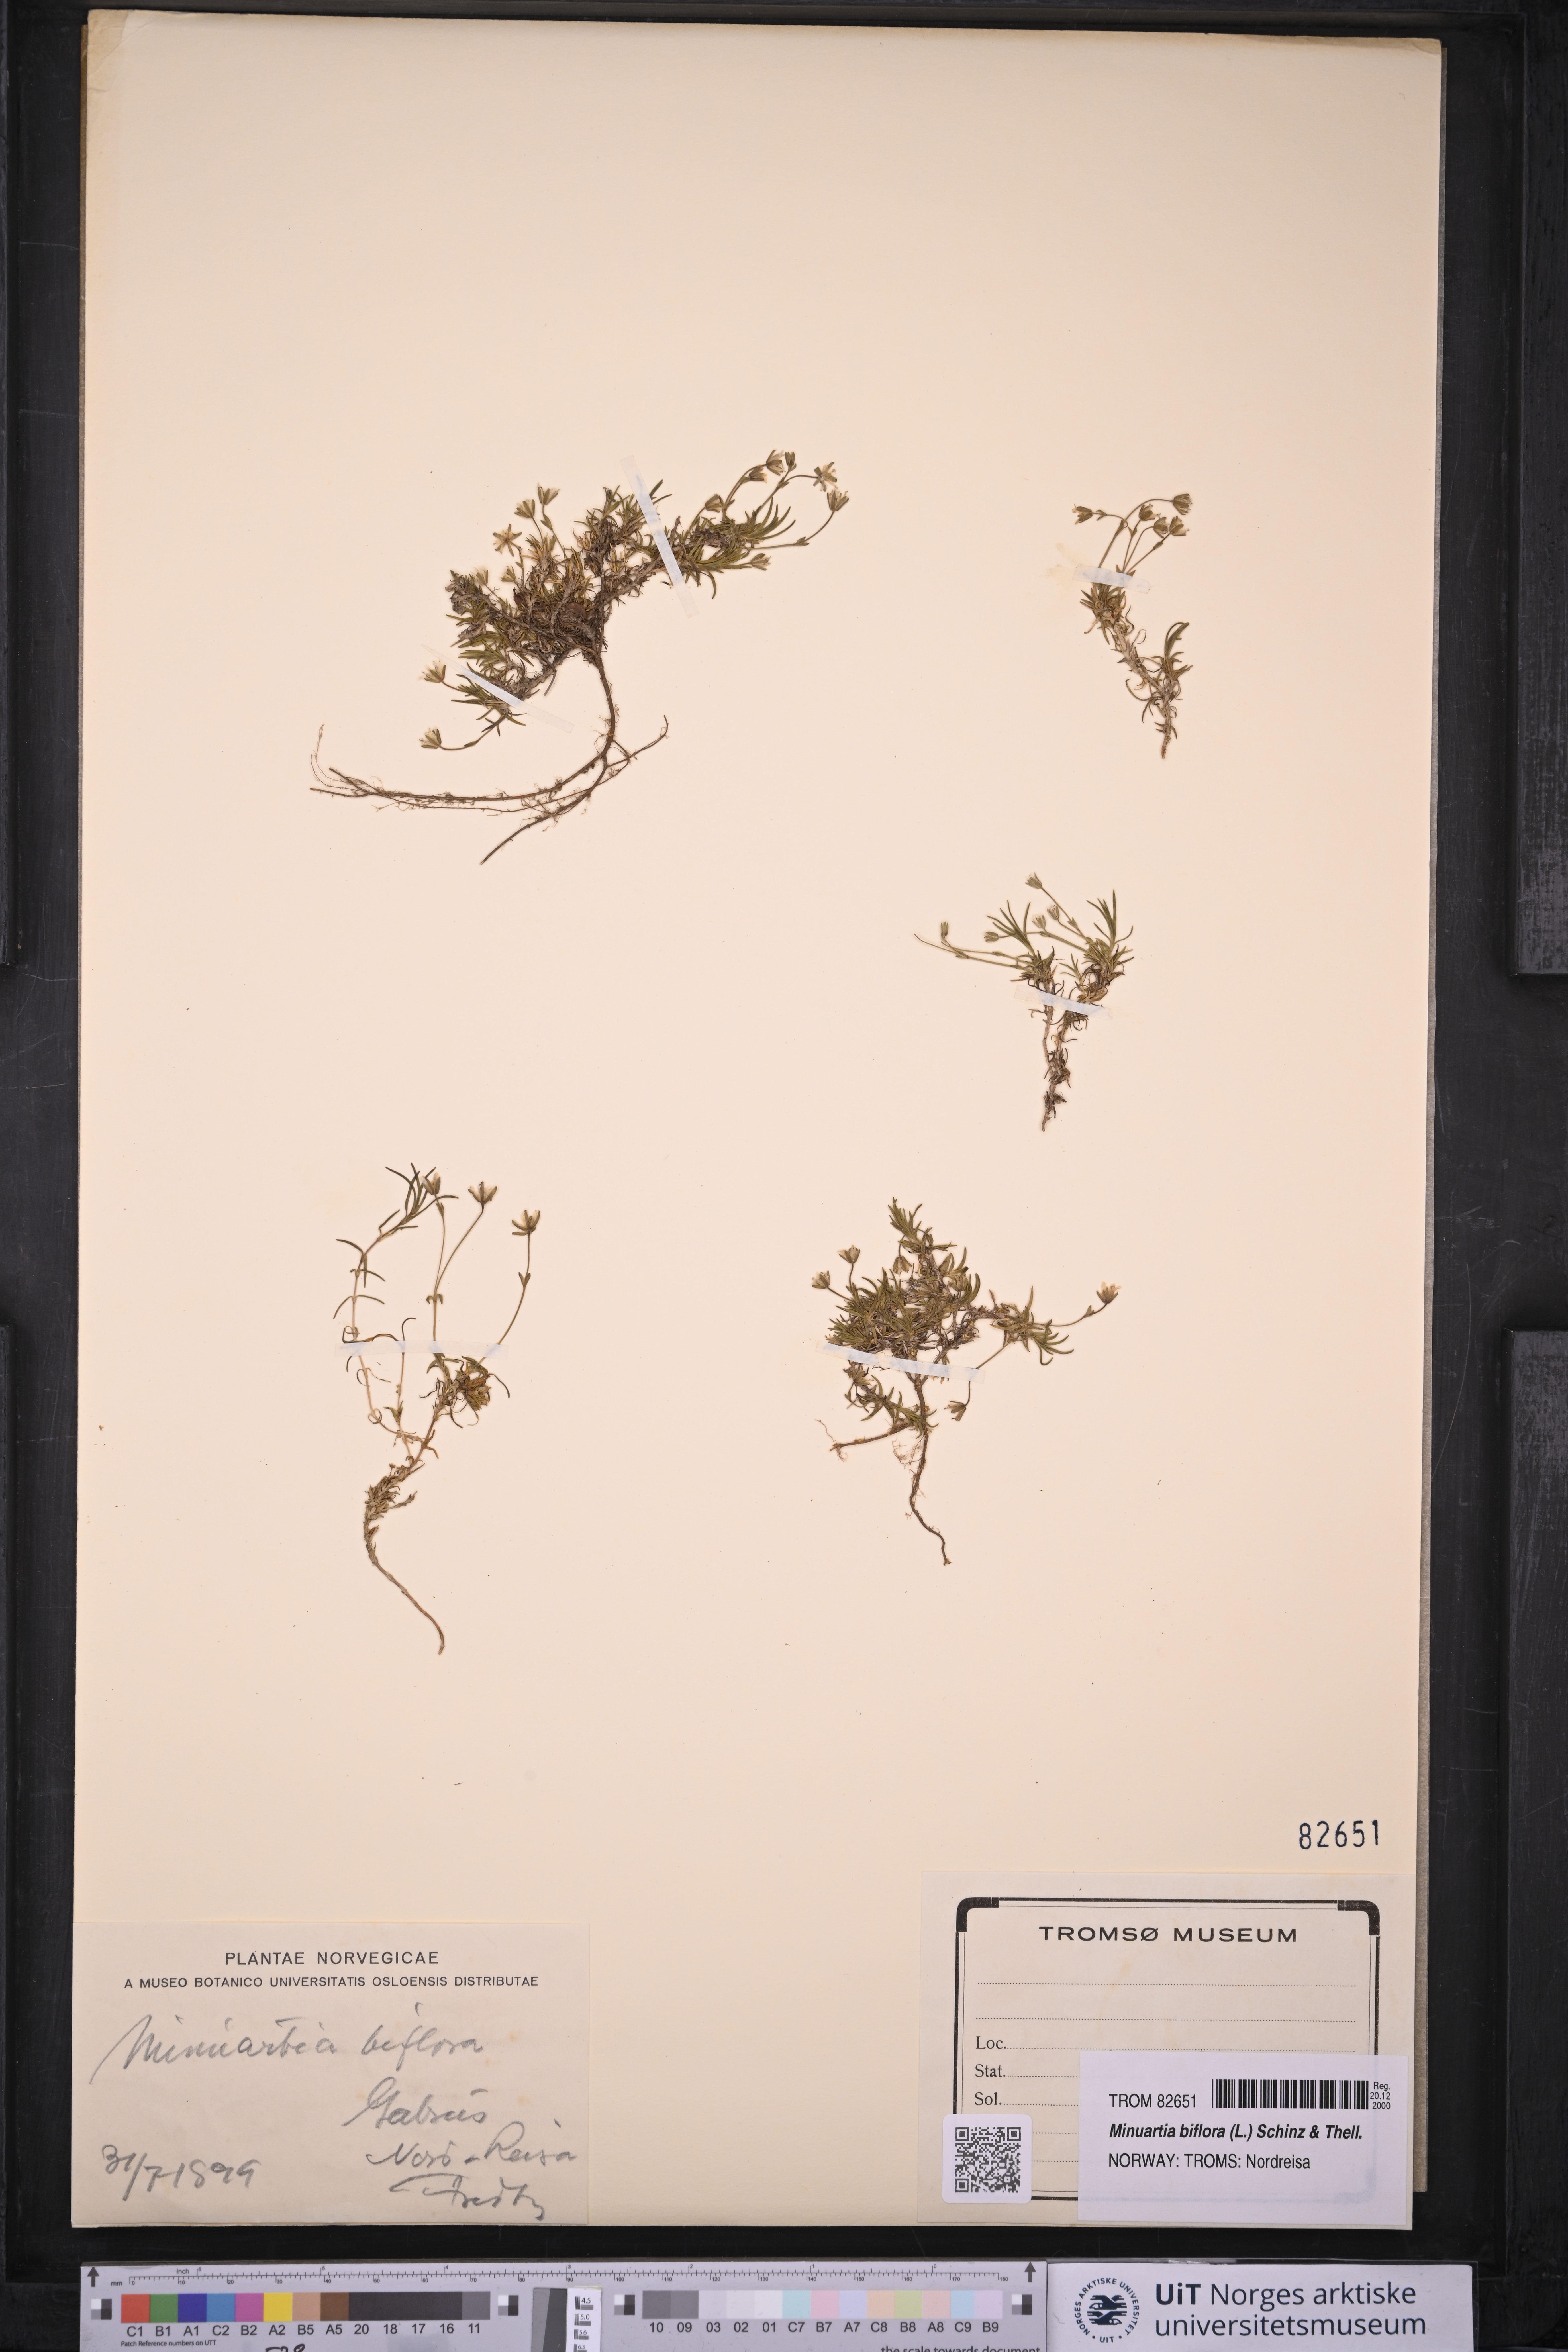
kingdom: Plantae
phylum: Tracheophyta
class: Magnoliopsida
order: Caryophyllales
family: Caryophyllaceae
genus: Cherleria
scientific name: Cherleria biflora
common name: Mountain sandwort
